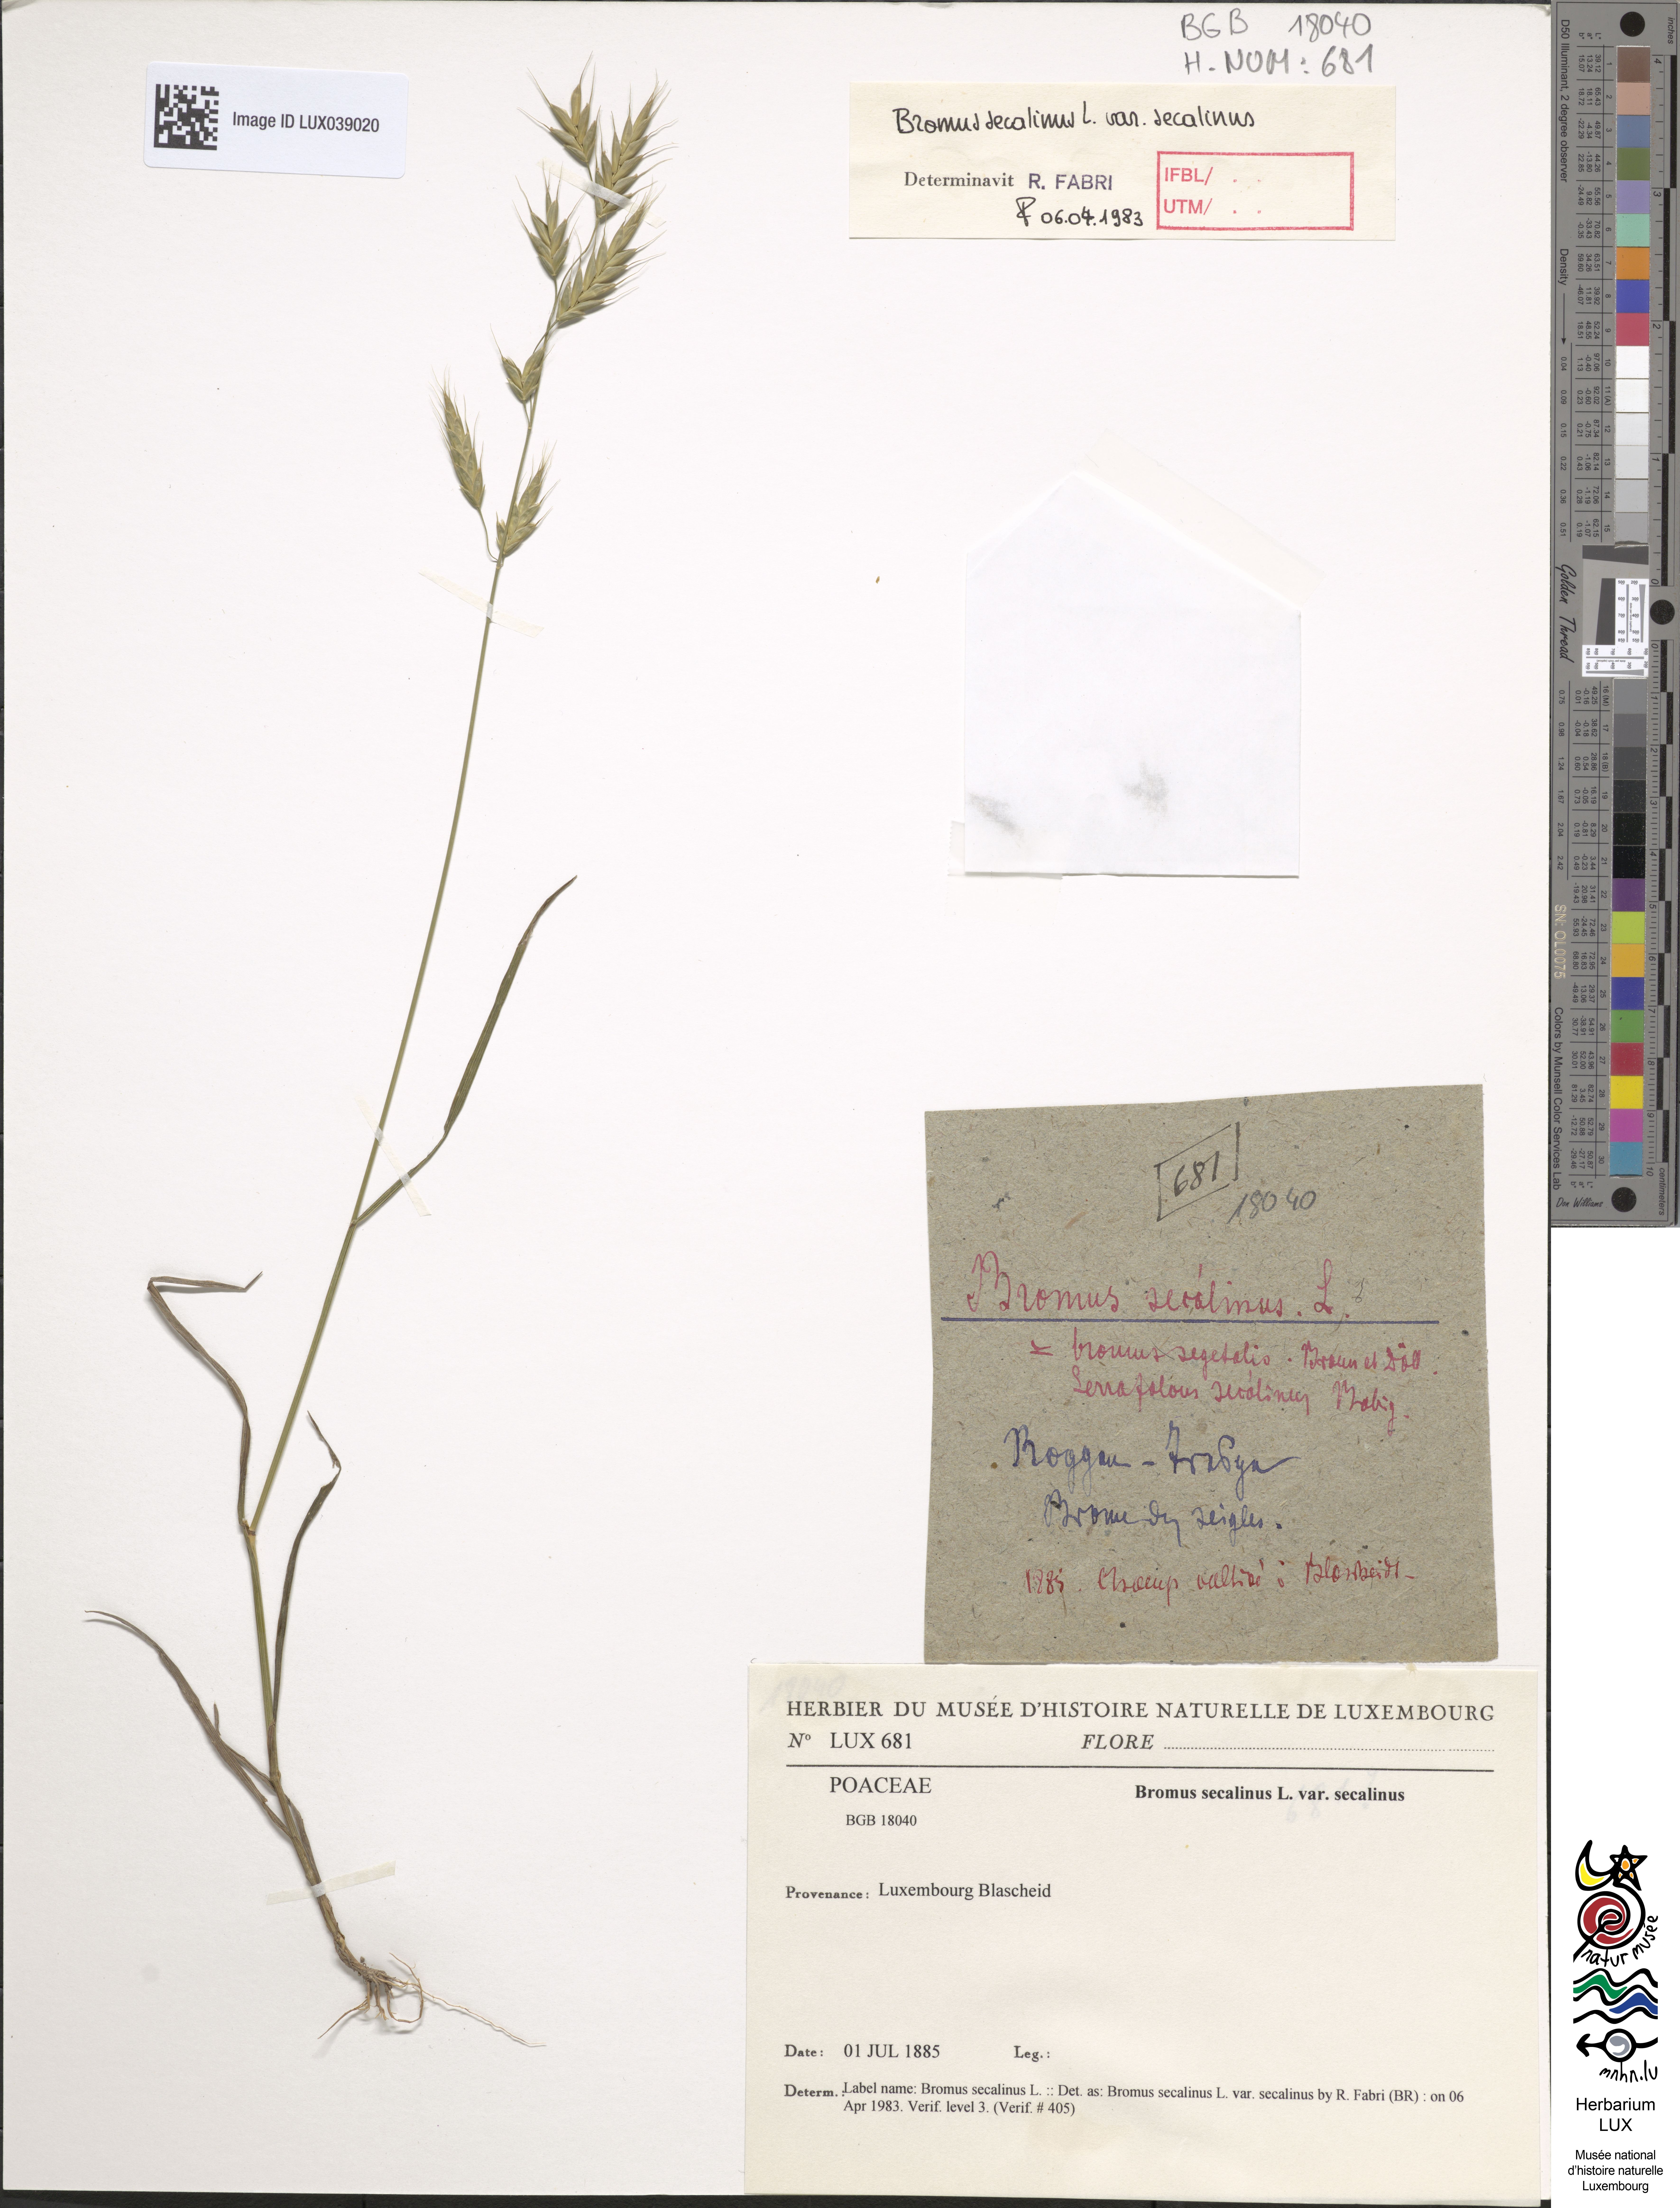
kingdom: Plantae
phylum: Tracheophyta
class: Liliopsida
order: Poales
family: Poaceae
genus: Bromus
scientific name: Bromus secalinus
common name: Rye brome
